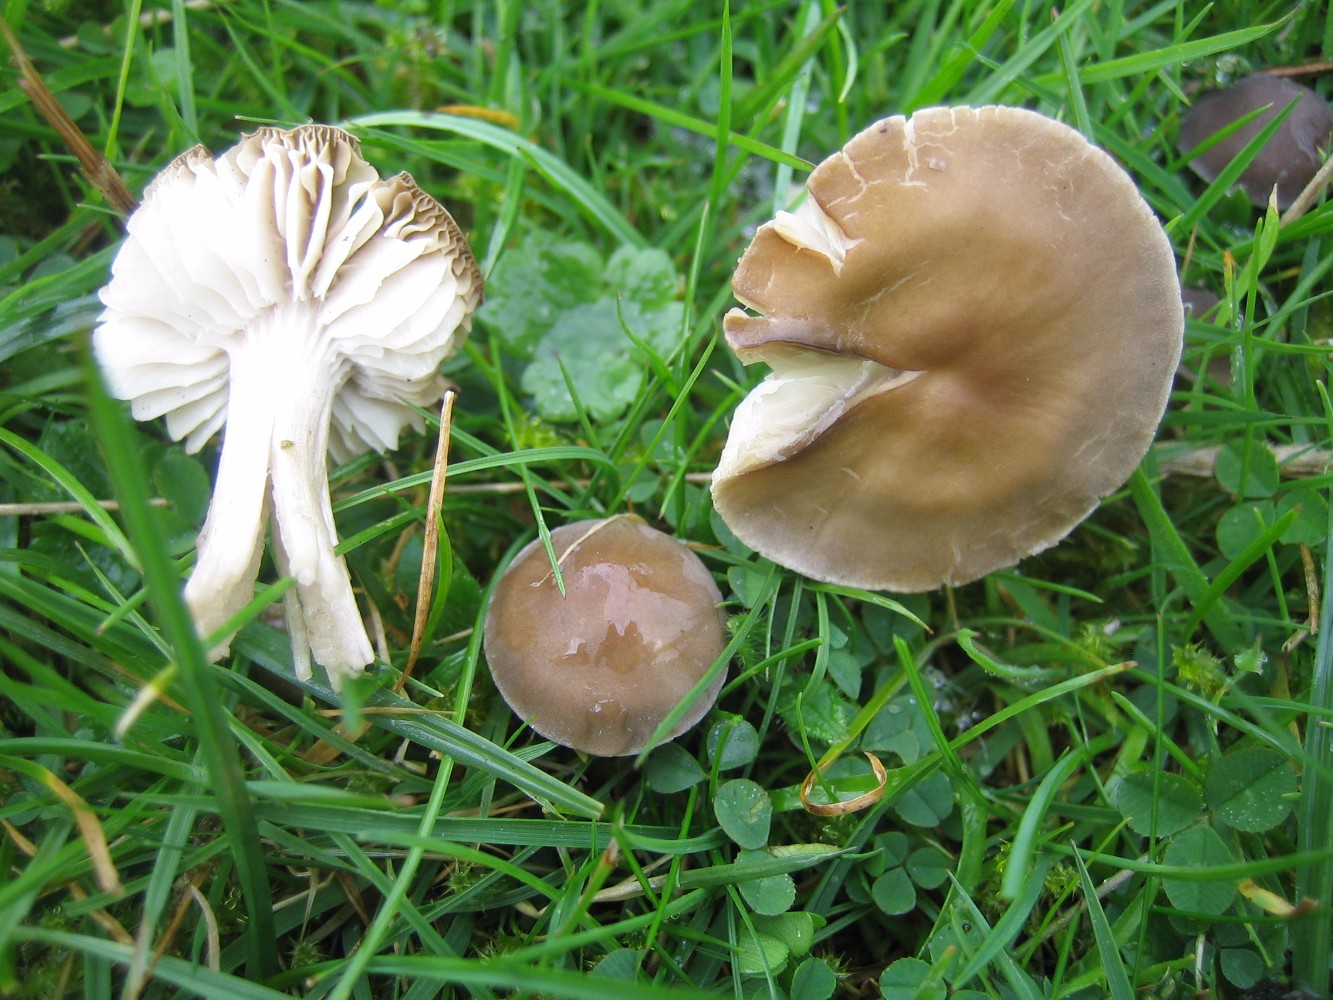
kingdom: Fungi
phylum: Basidiomycota
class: Agaricomycetes
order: Agaricales
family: Tricholomataceae
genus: Dermoloma
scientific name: Dermoloma cuneifolium
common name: eng-nonnehat
